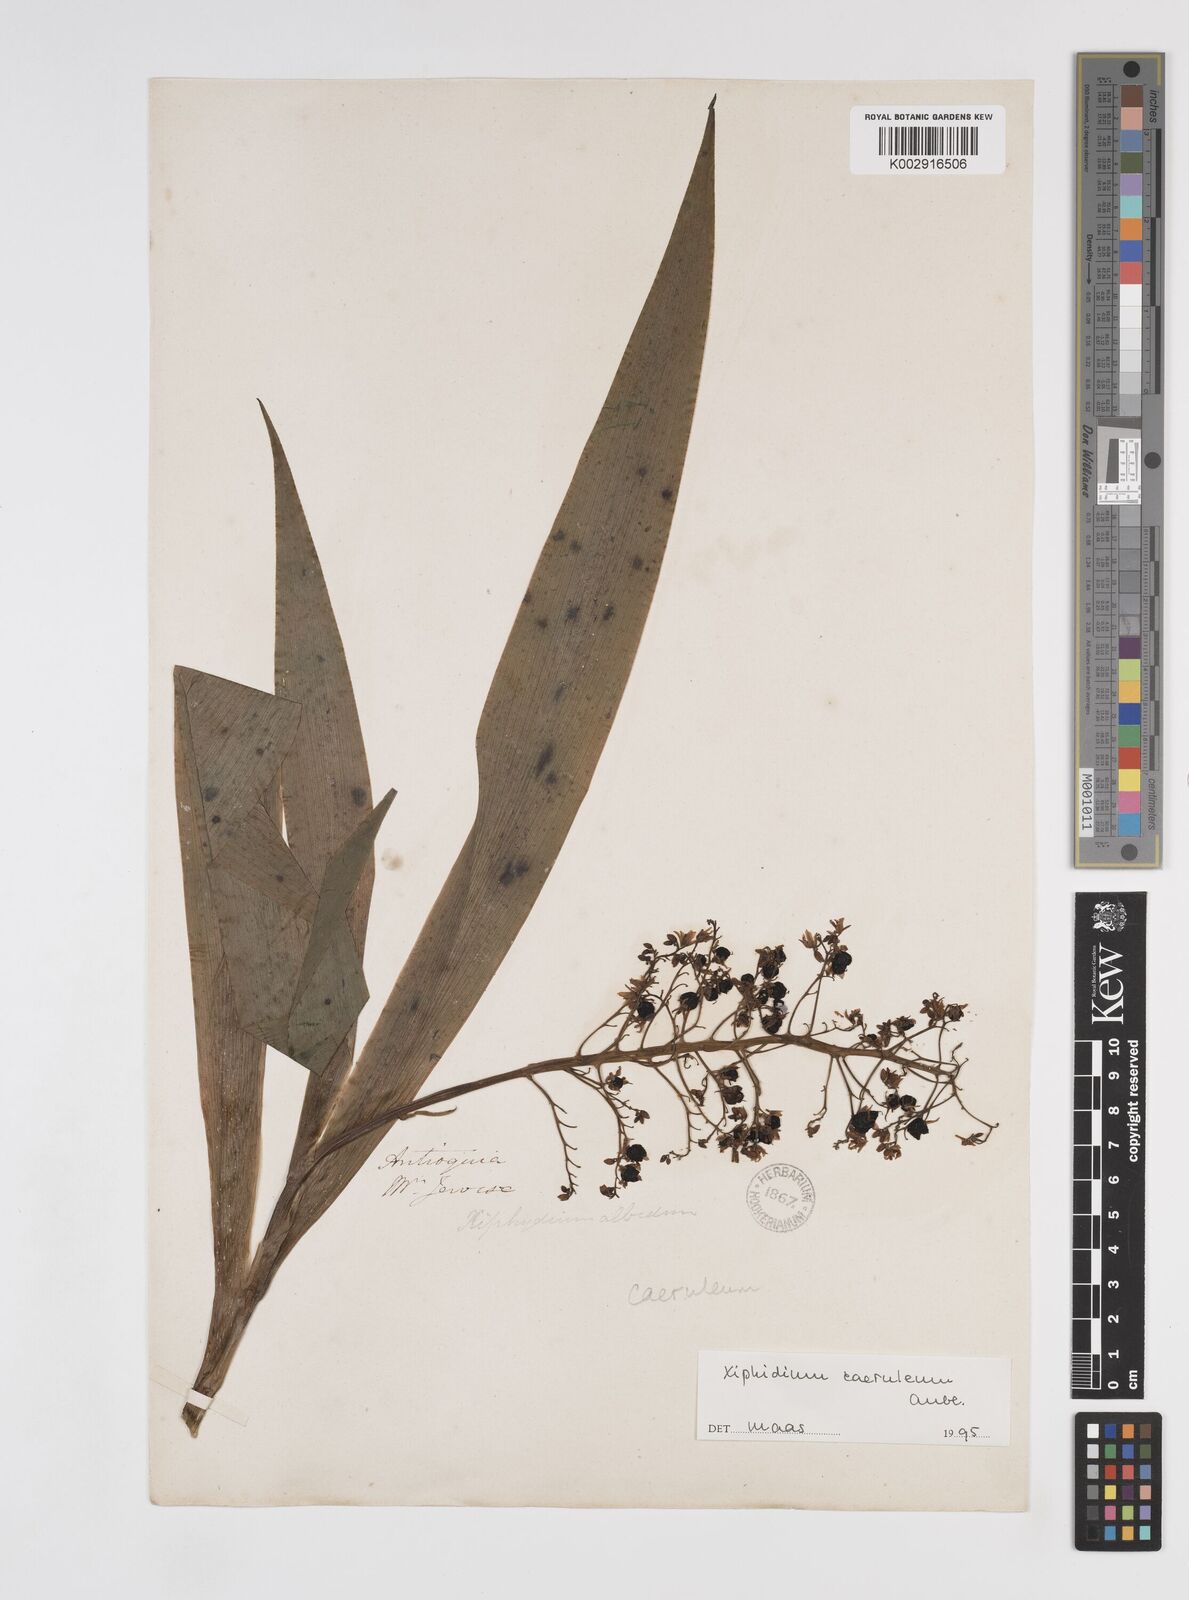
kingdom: Plantae
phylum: Tracheophyta
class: Liliopsida
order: Commelinales
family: Haemodoraceae
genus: Xiphidium
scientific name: Xiphidium caeruleum
